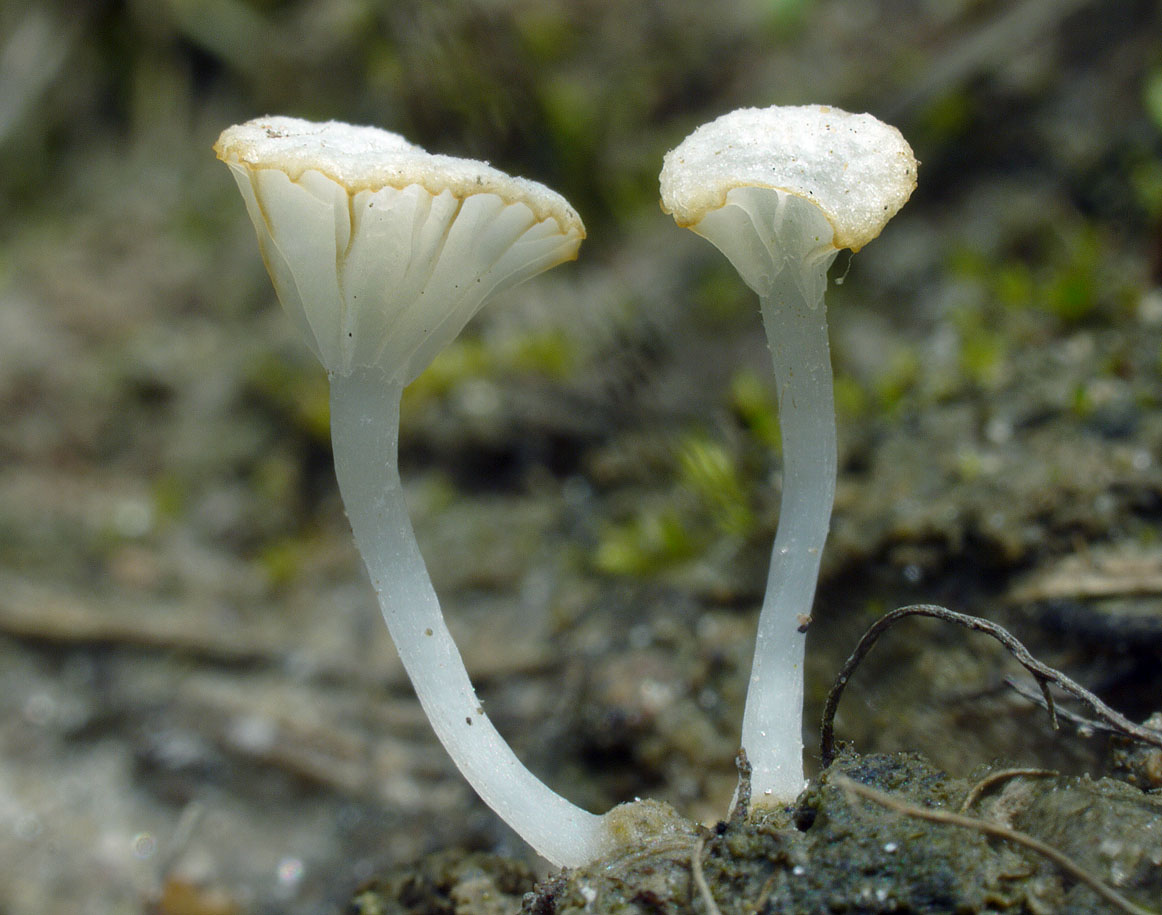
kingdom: Fungi
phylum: Basidiomycota
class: Agaricomycetes
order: Agaricales
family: Mycenaceae
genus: Hemimycena
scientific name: Hemimycena ignobilis
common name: faldskærms-huesvamp
